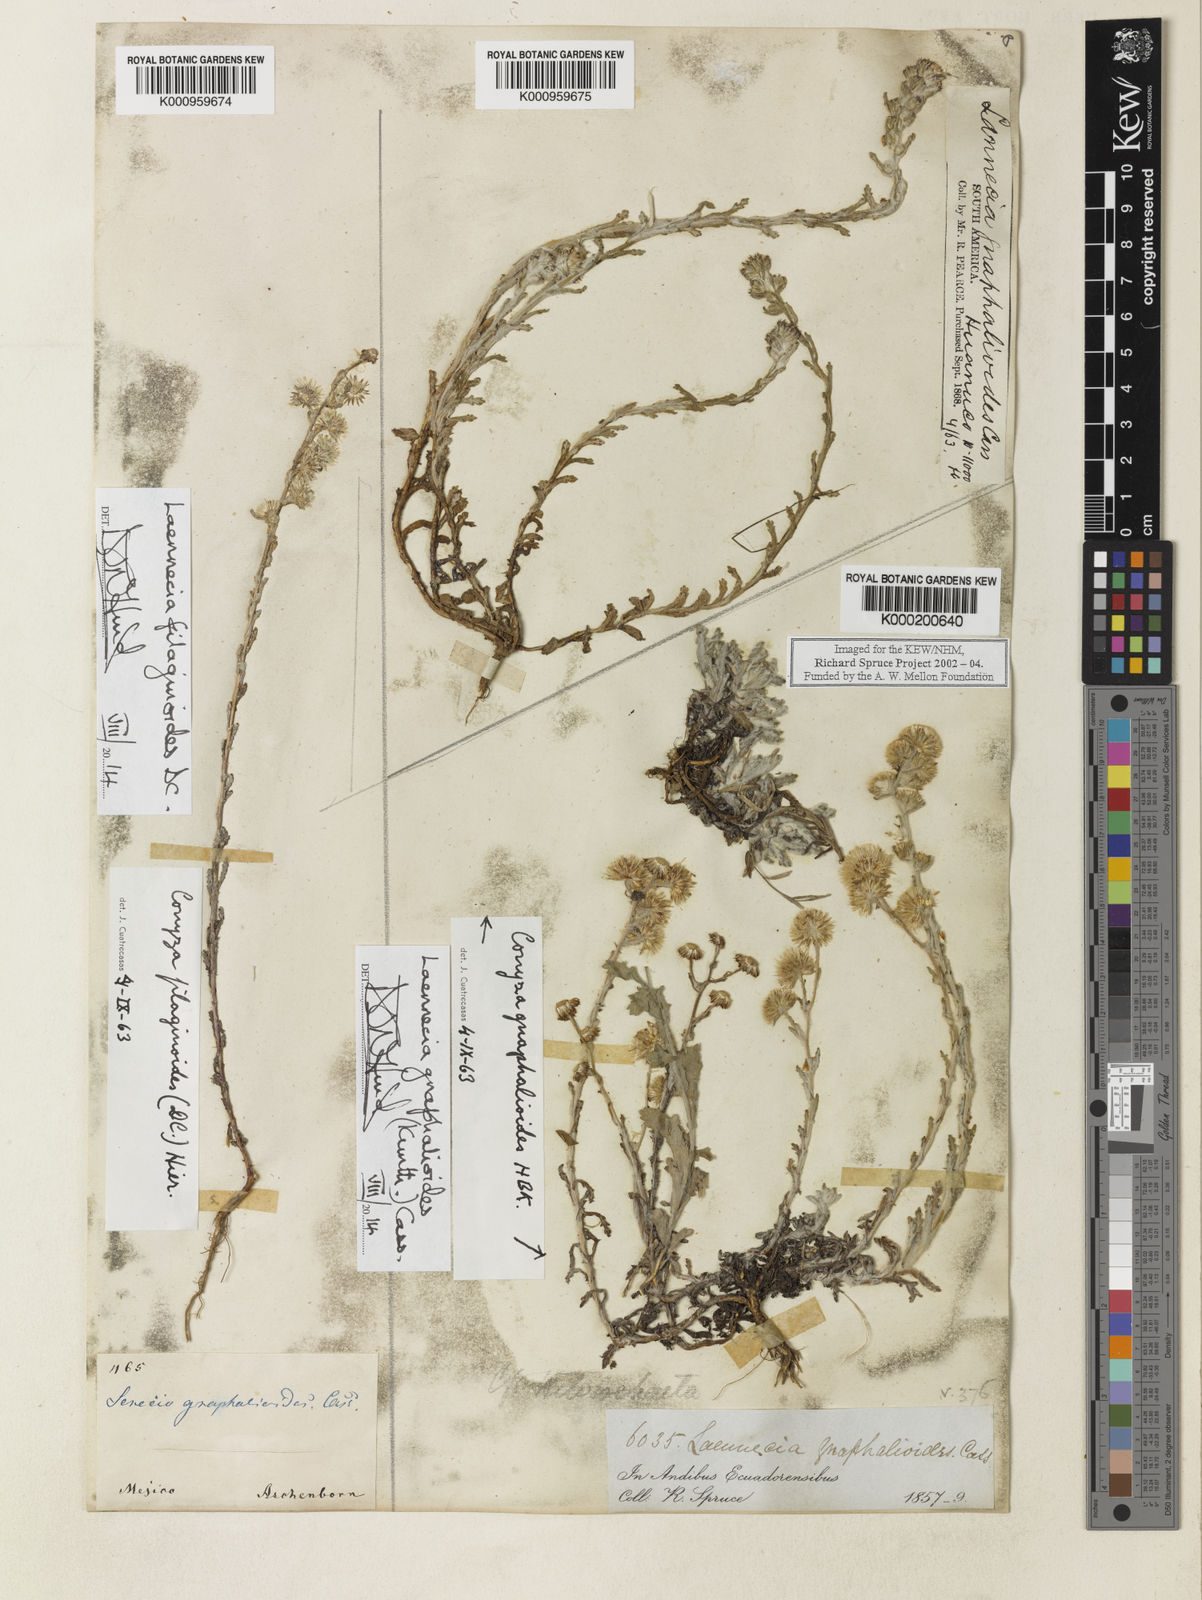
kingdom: Plantae
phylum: Tracheophyta
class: Magnoliopsida
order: Asterales
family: Asteraceae
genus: Laennecia
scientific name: Laennecia gnaphalioides
